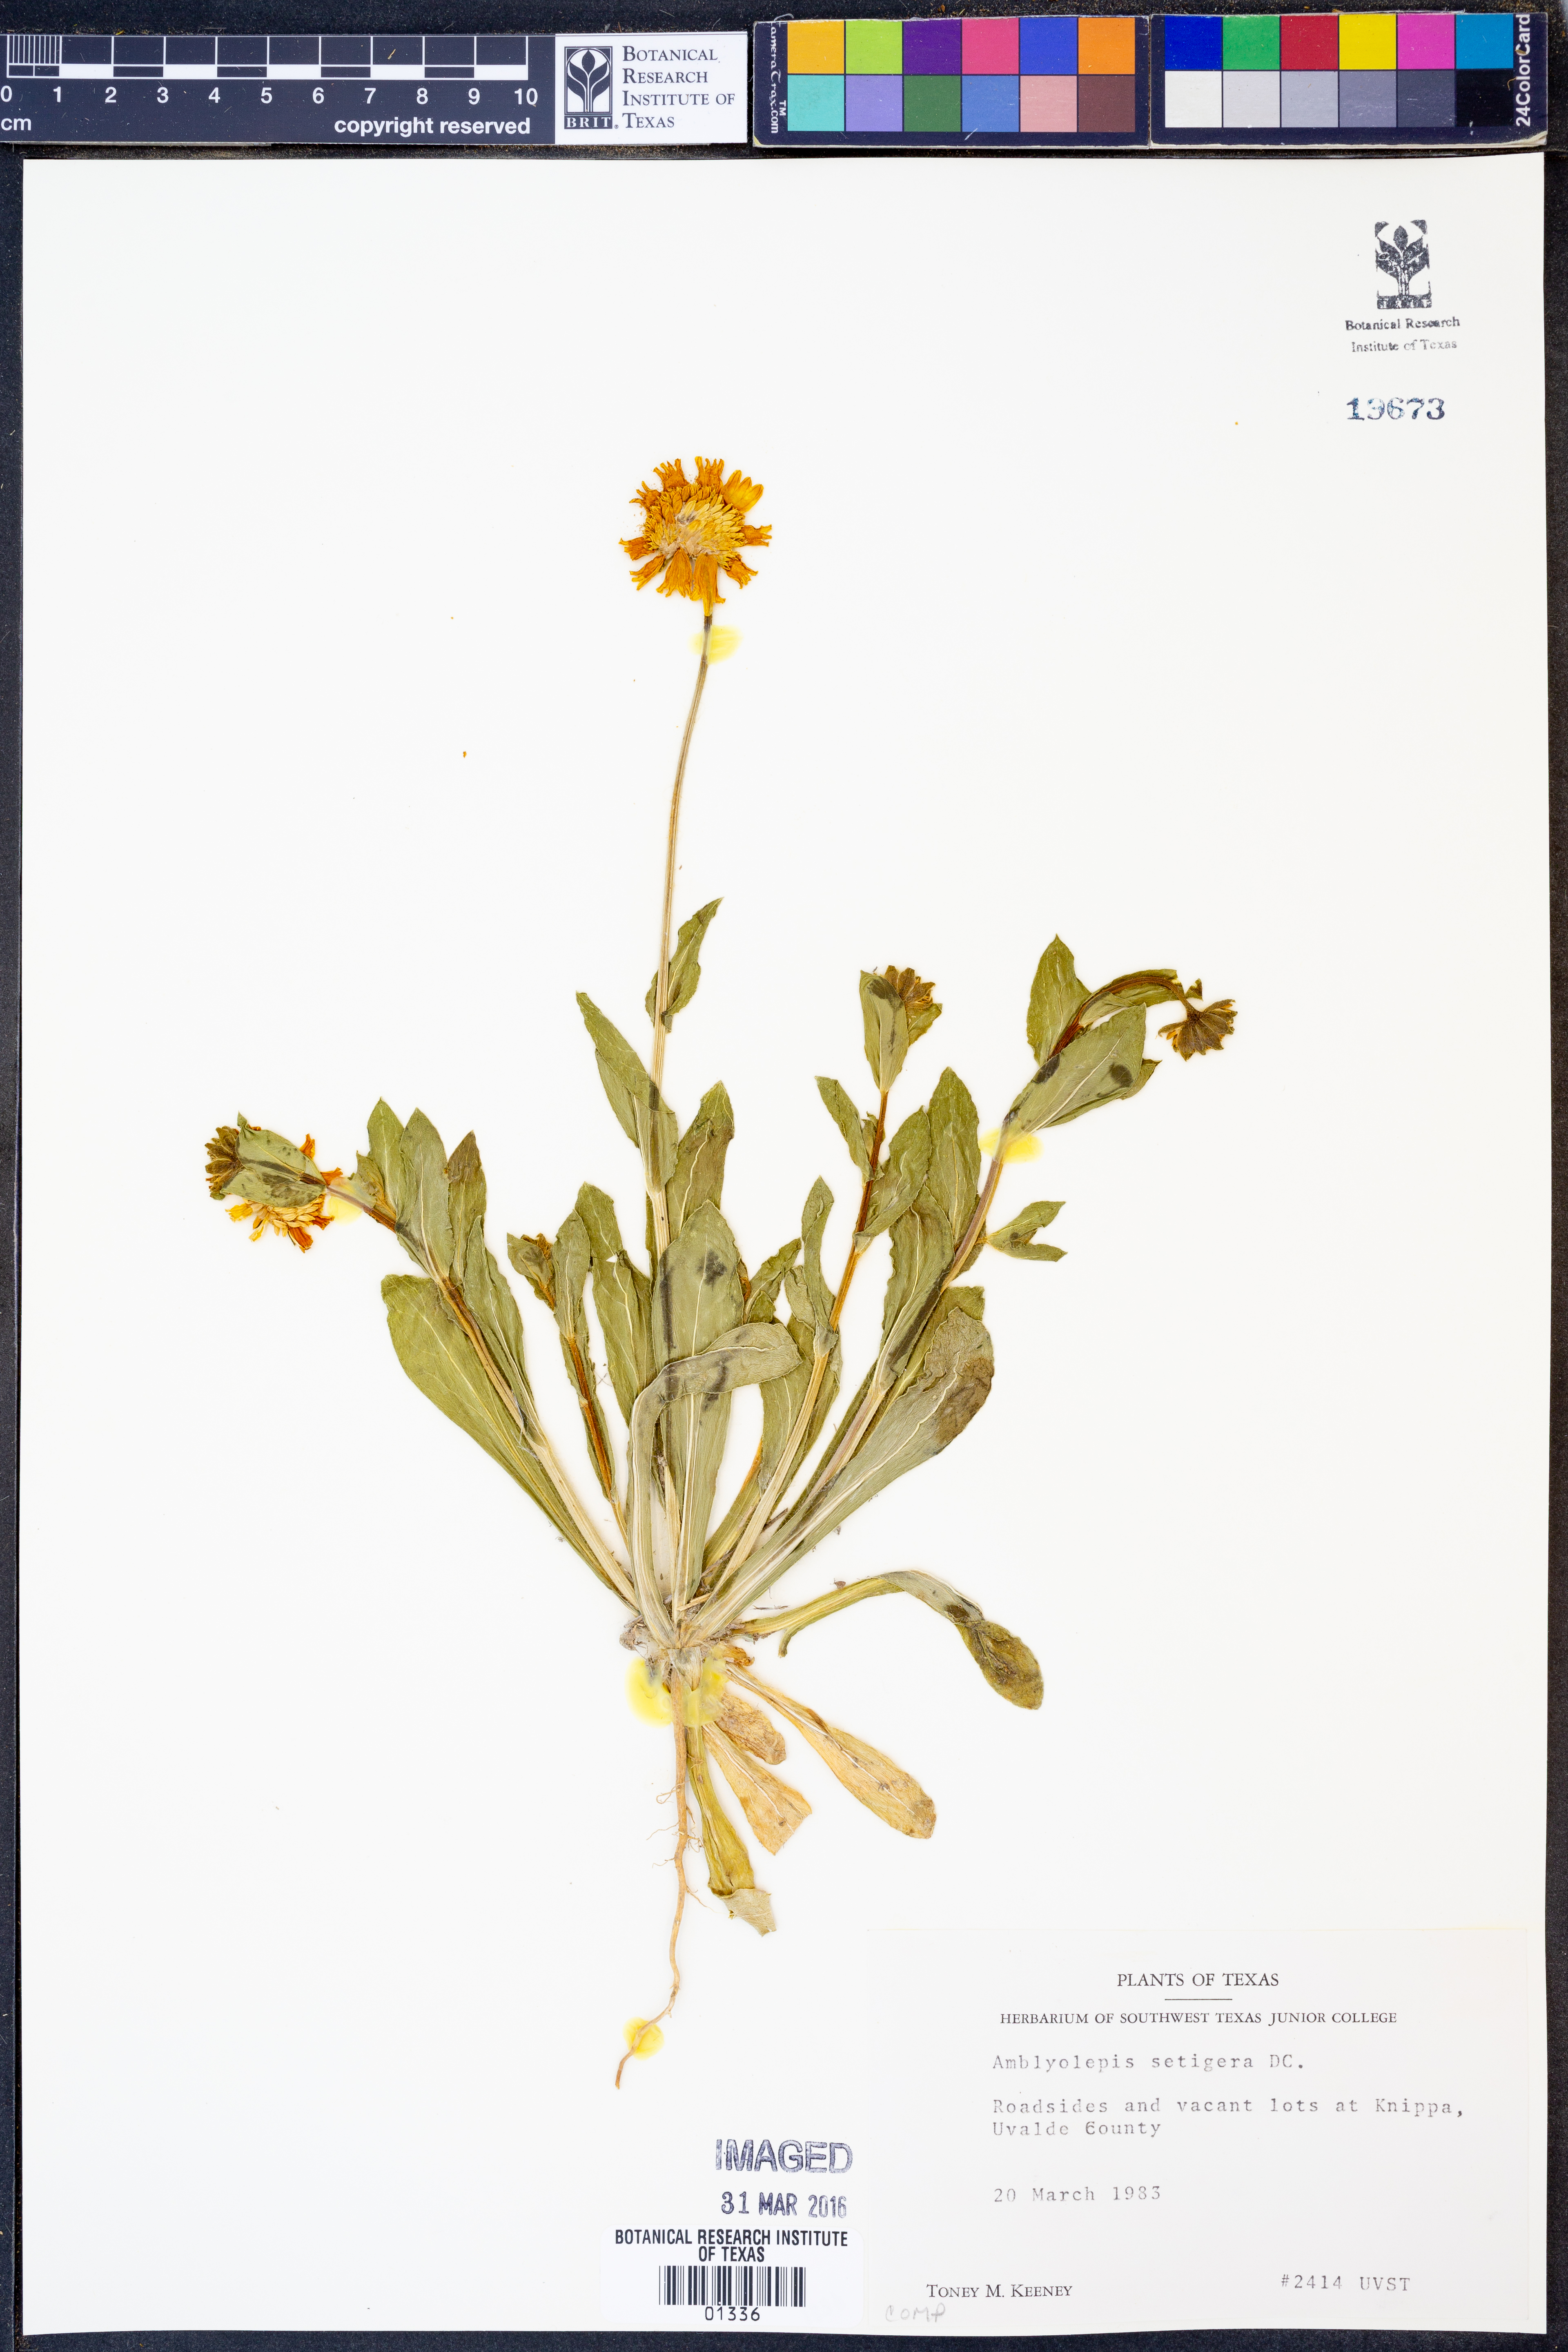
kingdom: Plantae
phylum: Tracheophyta
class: Magnoliopsida
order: Asterales
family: Asteraceae
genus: Amblyolepis
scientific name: Amblyolepis setigera
